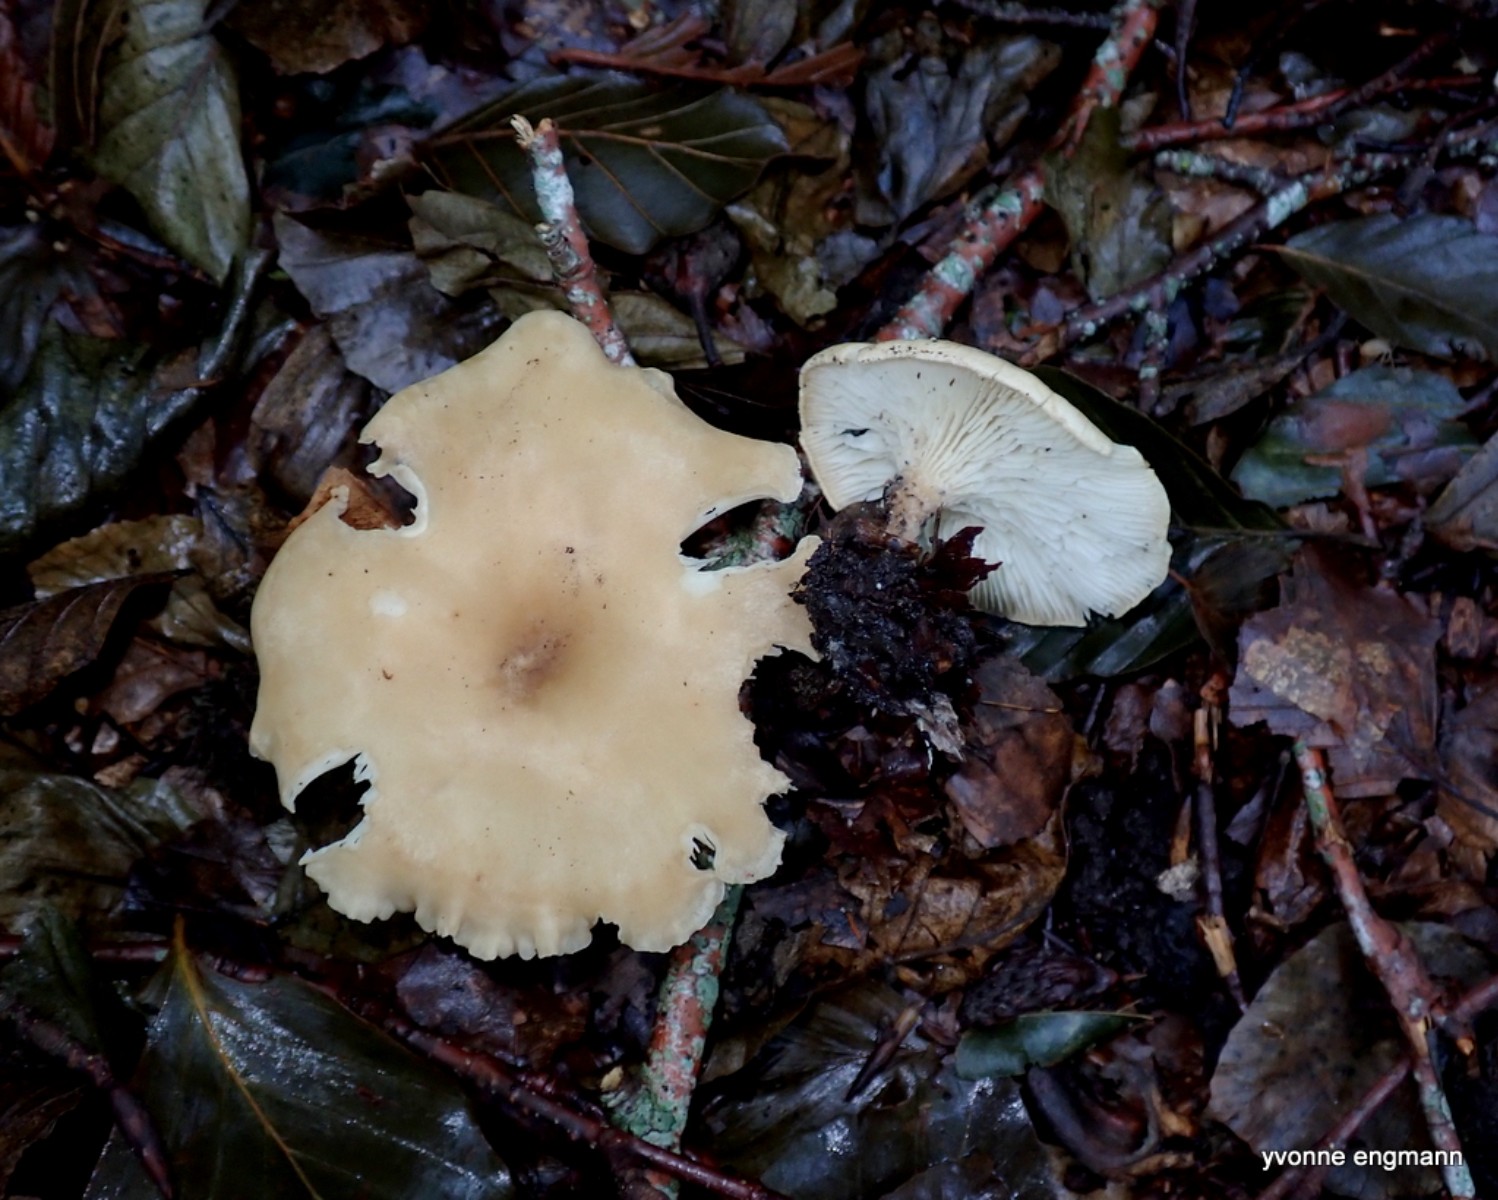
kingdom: Fungi
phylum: Basidiomycota
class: Agaricomycetes
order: Agaricales
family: Tricholomataceae
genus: Infundibulicybe
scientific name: Infundibulicybe gibba
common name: almindelig tragthat
